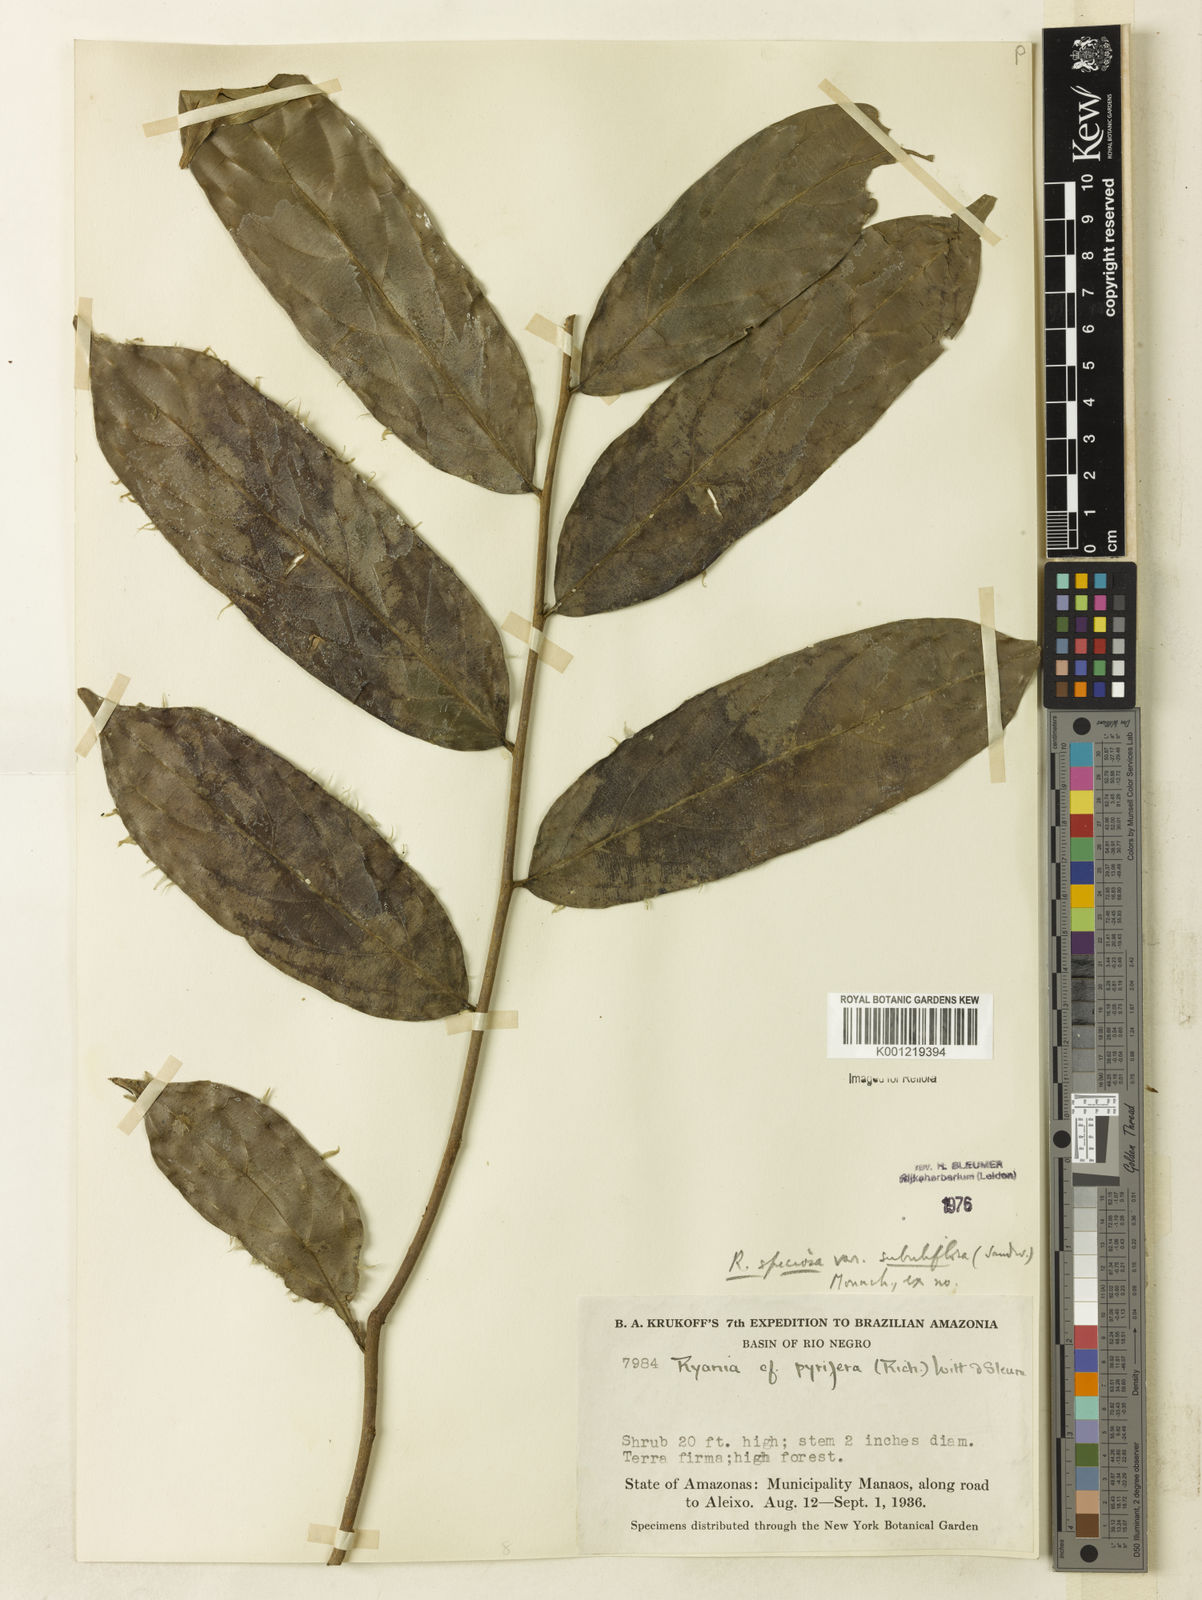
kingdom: Plantae
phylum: Tracheophyta
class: Magnoliopsida
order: Malpighiales
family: Salicaceae
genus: Ryania
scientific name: Ryania speciosa
